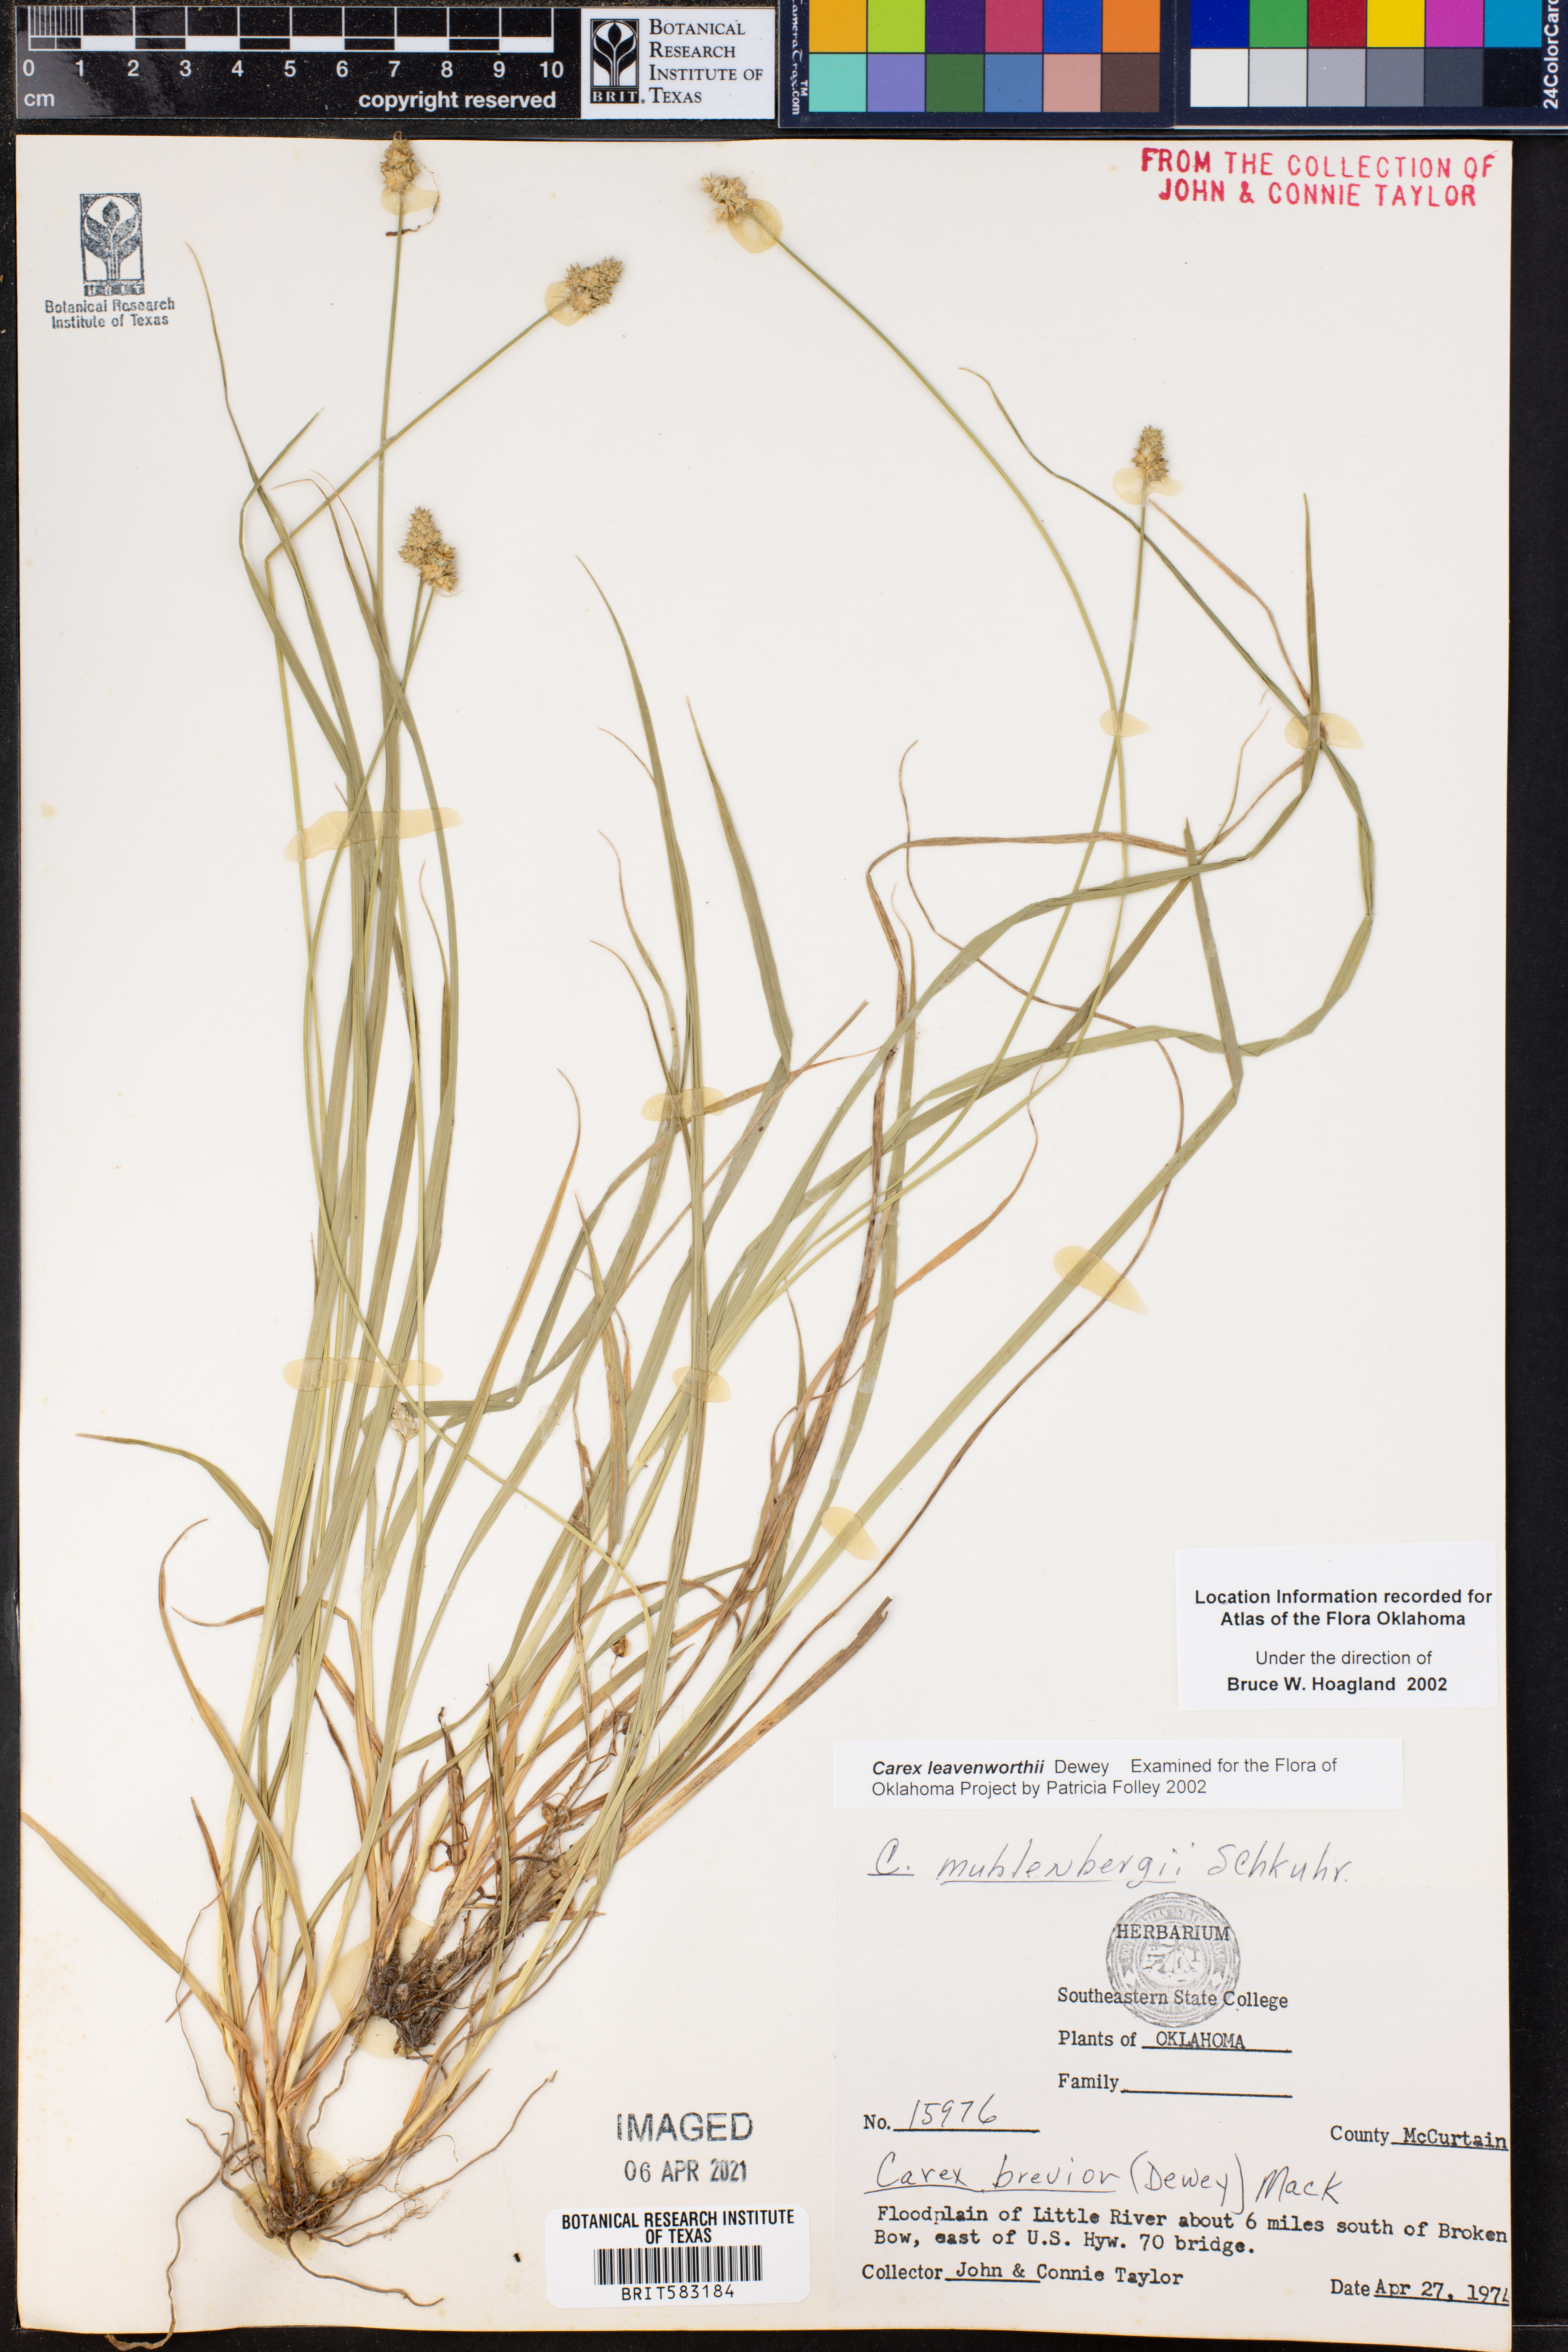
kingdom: Plantae
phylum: Tracheophyta
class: Liliopsida
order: Poales
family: Cyperaceae
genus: Carex
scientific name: Carex leavenworthii
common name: Leavenworth's bracted sedge
